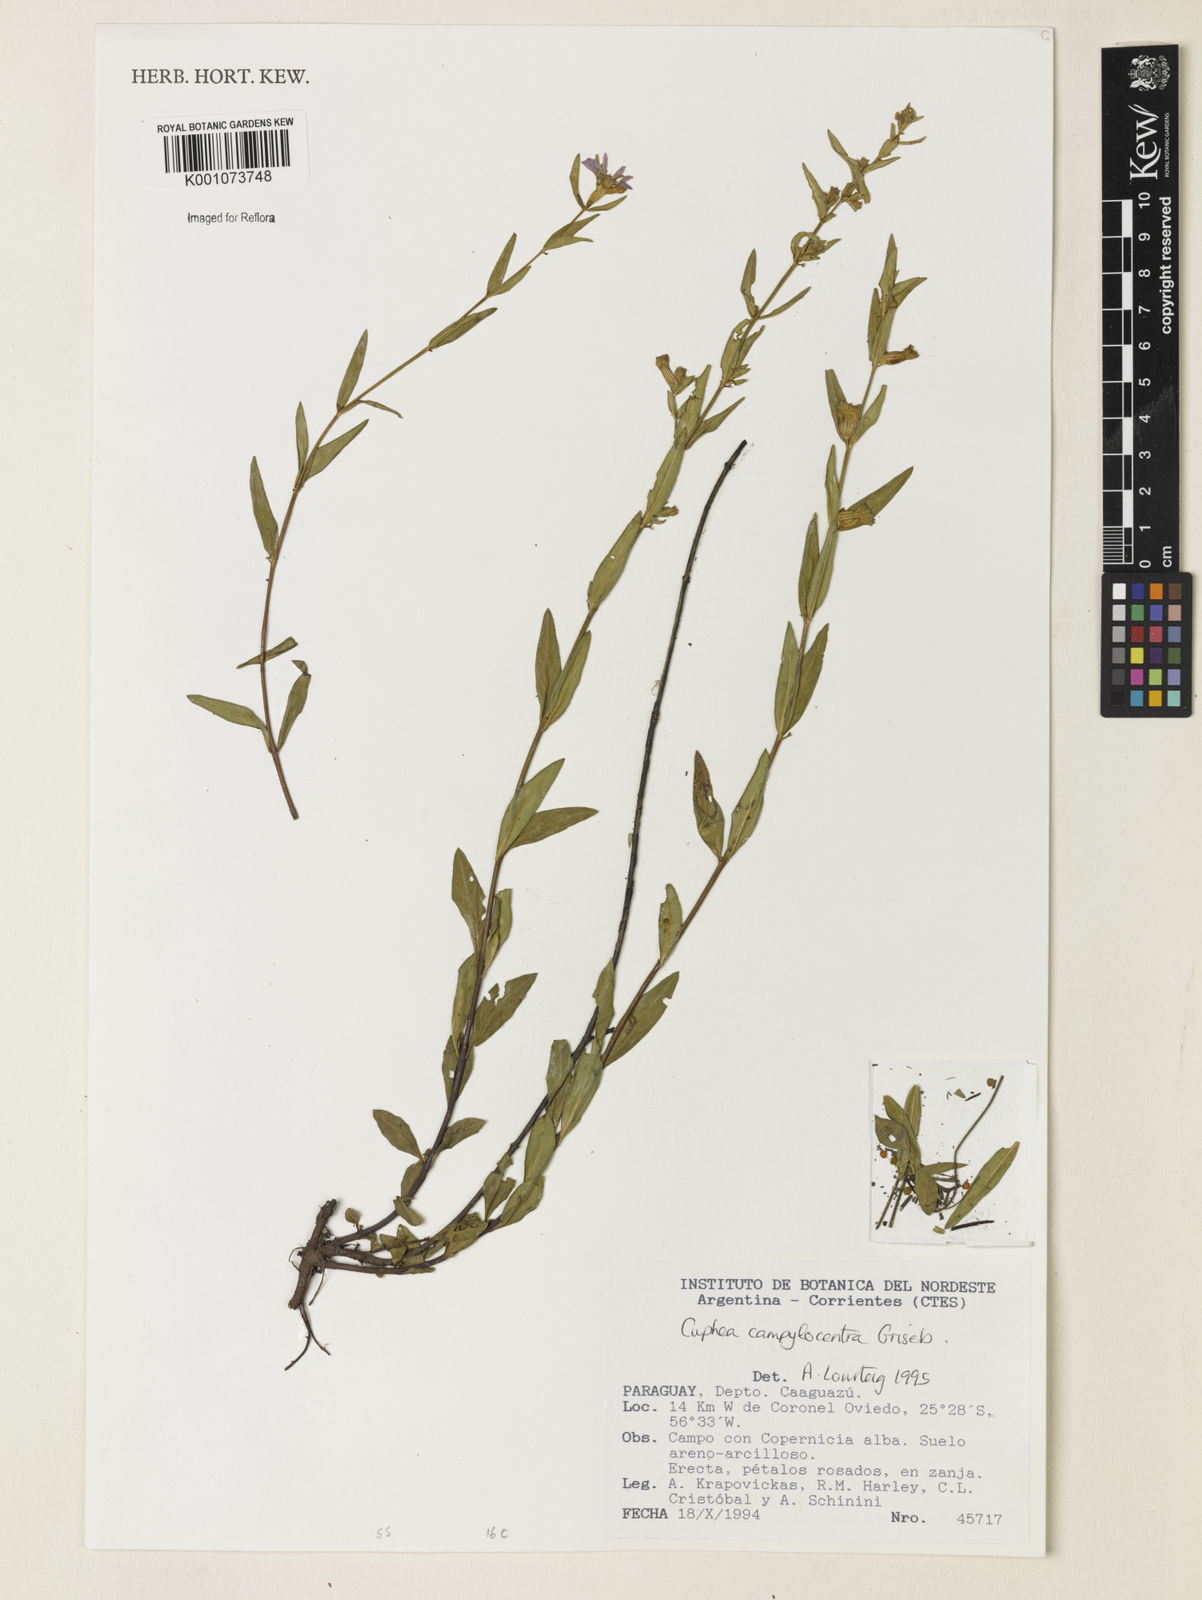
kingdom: Plantae
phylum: Tracheophyta
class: Magnoliopsida
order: Myrtales
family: Lythraceae
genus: Cuphea
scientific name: Cuphea campylocentra
